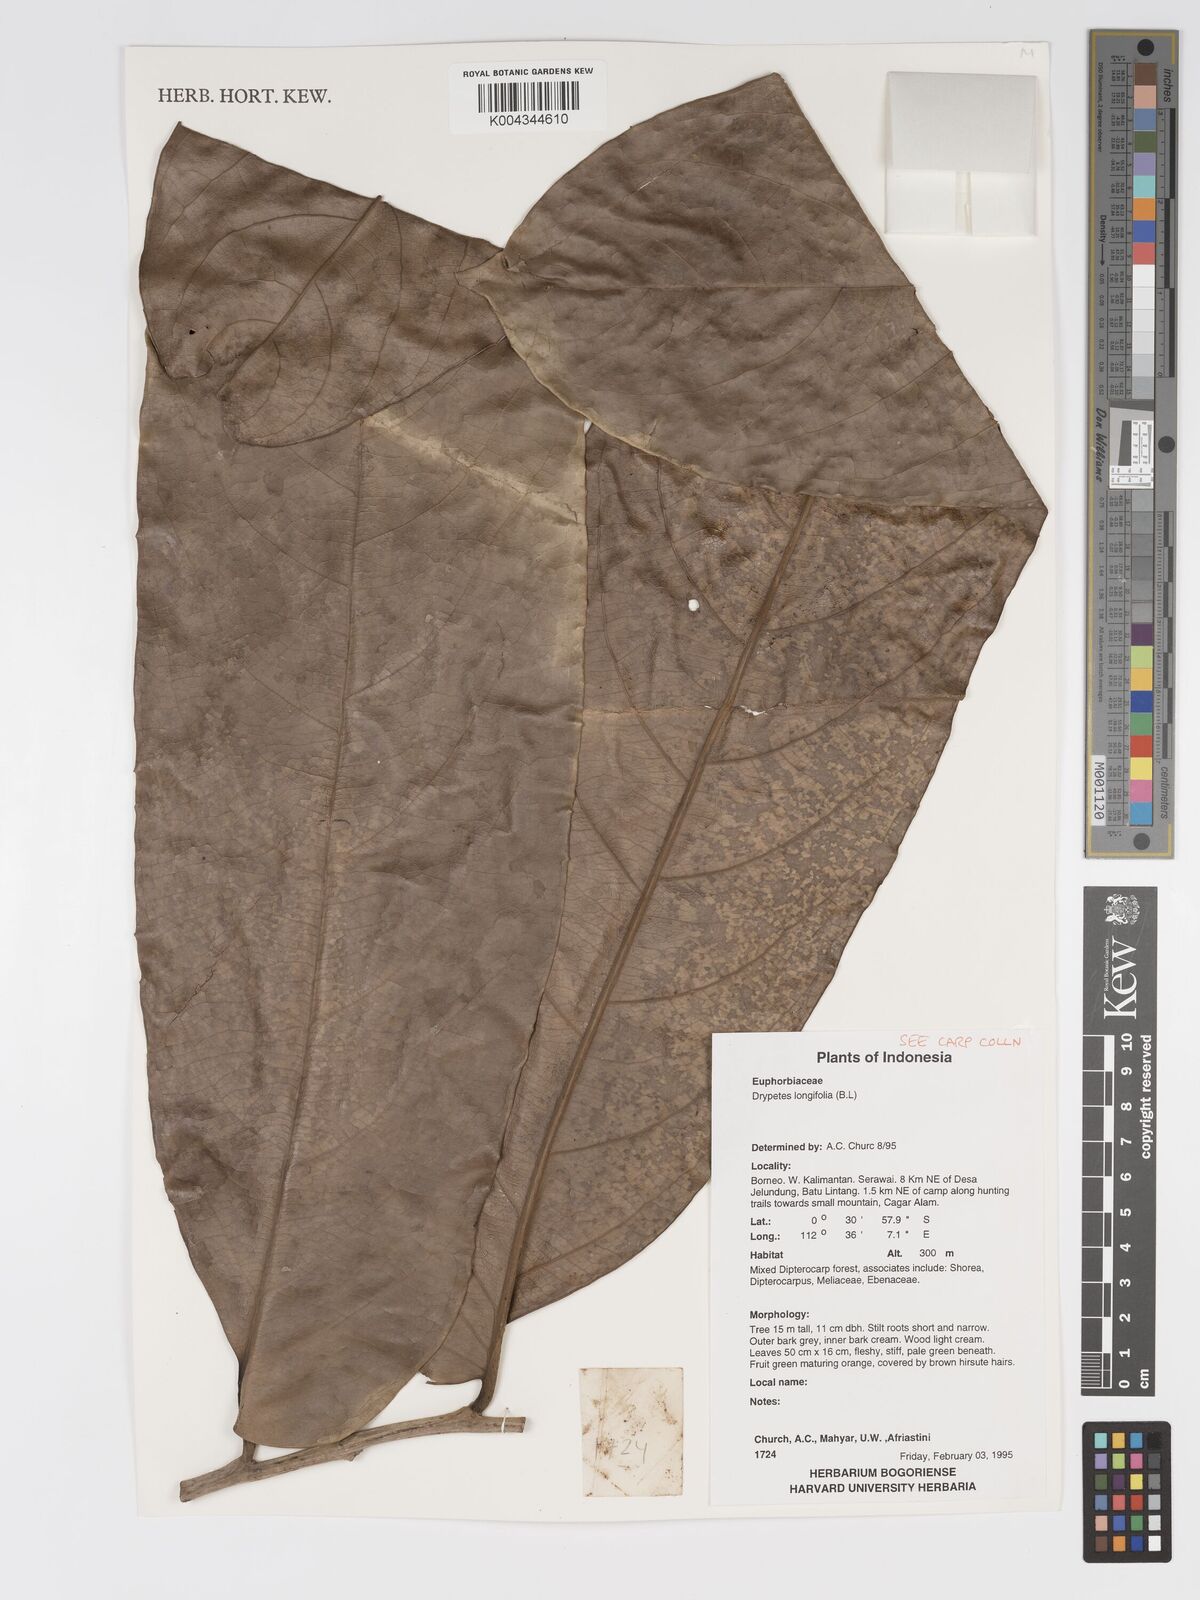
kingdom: Plantae
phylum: Tracheophyta
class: Magnoliopsida
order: Malpighiales
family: Putranjivaceae
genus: Drypetes
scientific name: Drypetes longifolia
